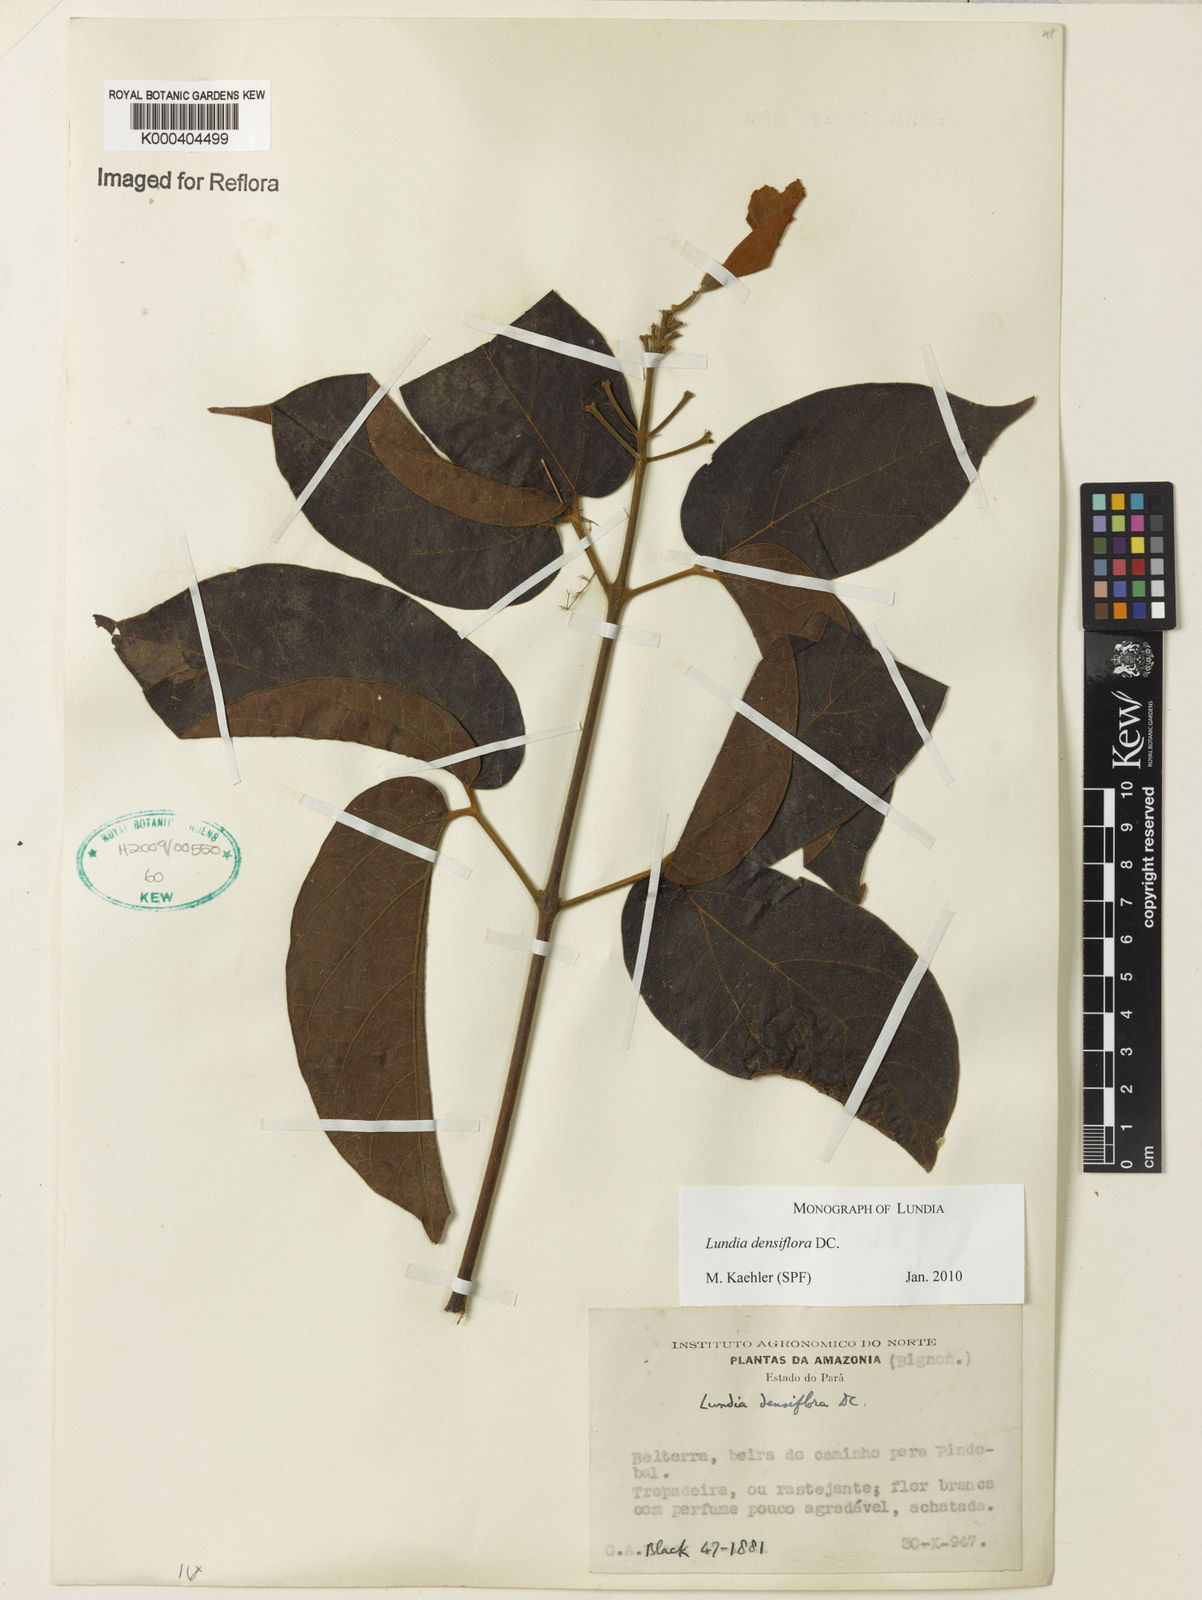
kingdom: Plantae
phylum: Tracheophyta
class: Magnoliopsida
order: Lamiales
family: Bignoniaceae
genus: Lundia
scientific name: Lundia densiflora
